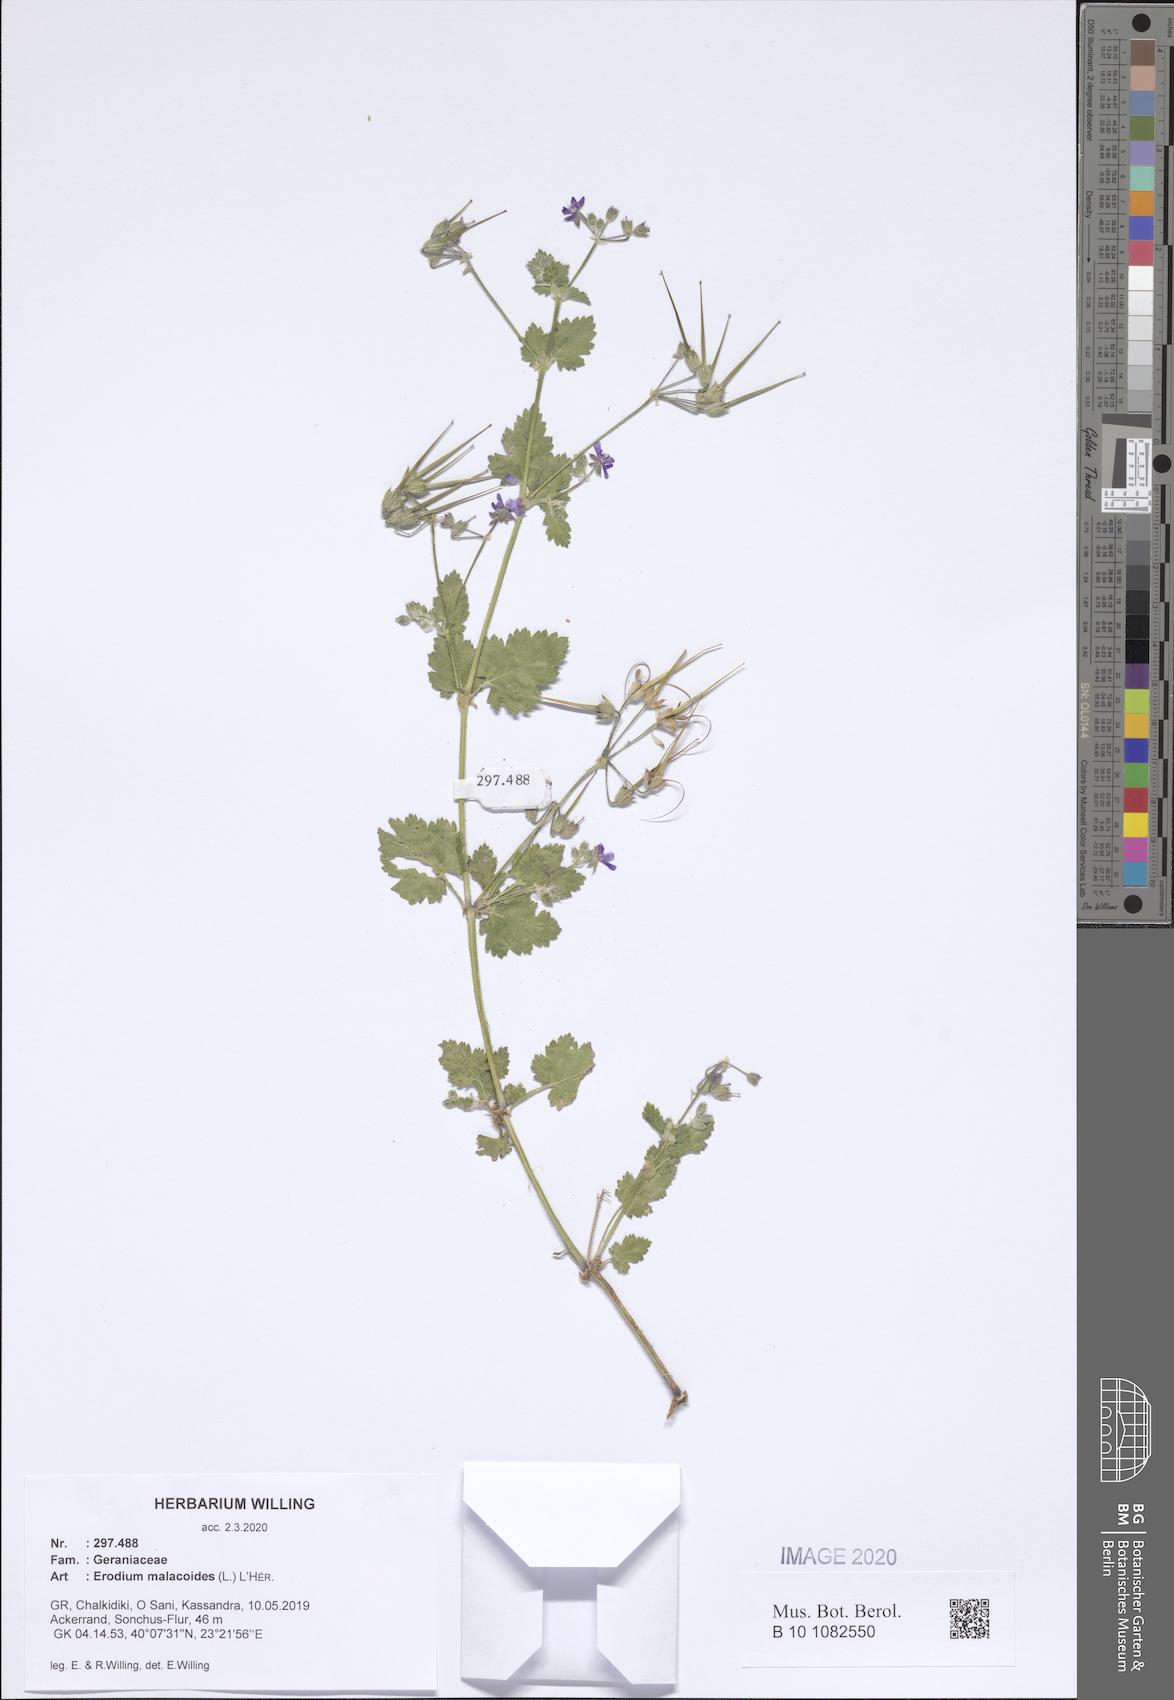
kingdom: Plantae
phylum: Tracheophyta
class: Magnoliopsida
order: Geraniales
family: Geraniaceae
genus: Erodium
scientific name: Erodium malacoides
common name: Soft stork's-bill
